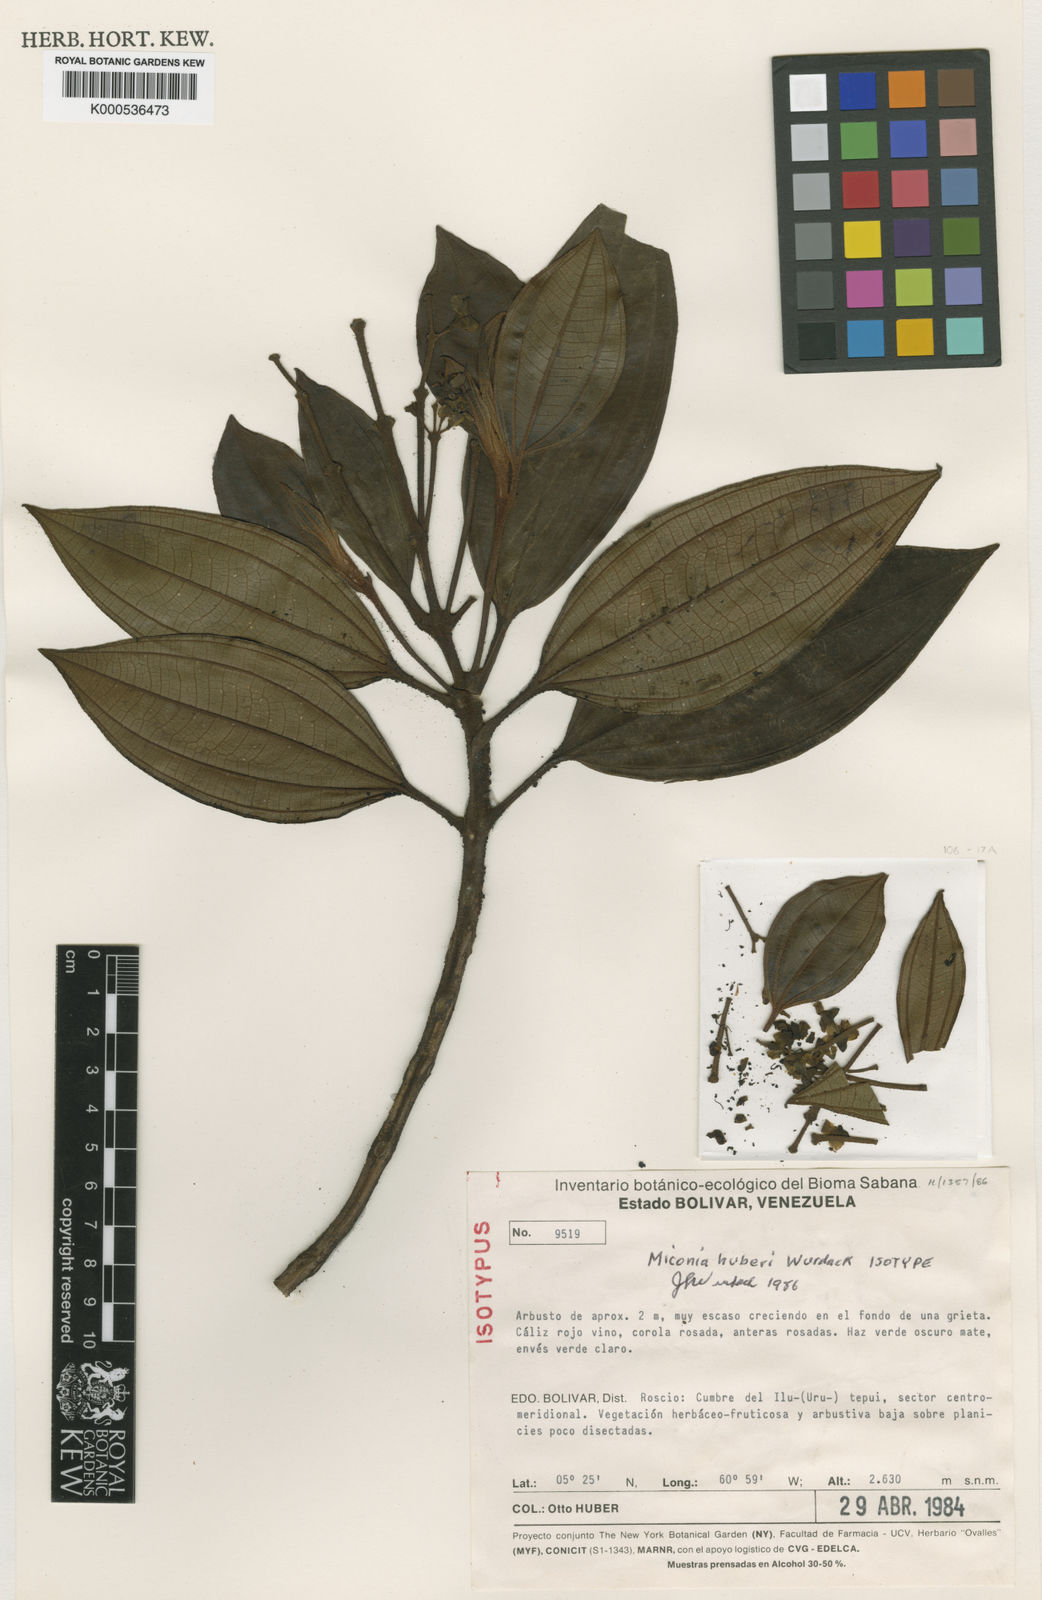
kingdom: Plantae
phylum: Tracheophyta
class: Magnoliopsida
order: Myrtales
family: Melastomataceae
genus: Miconia
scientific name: Miconia huberi
